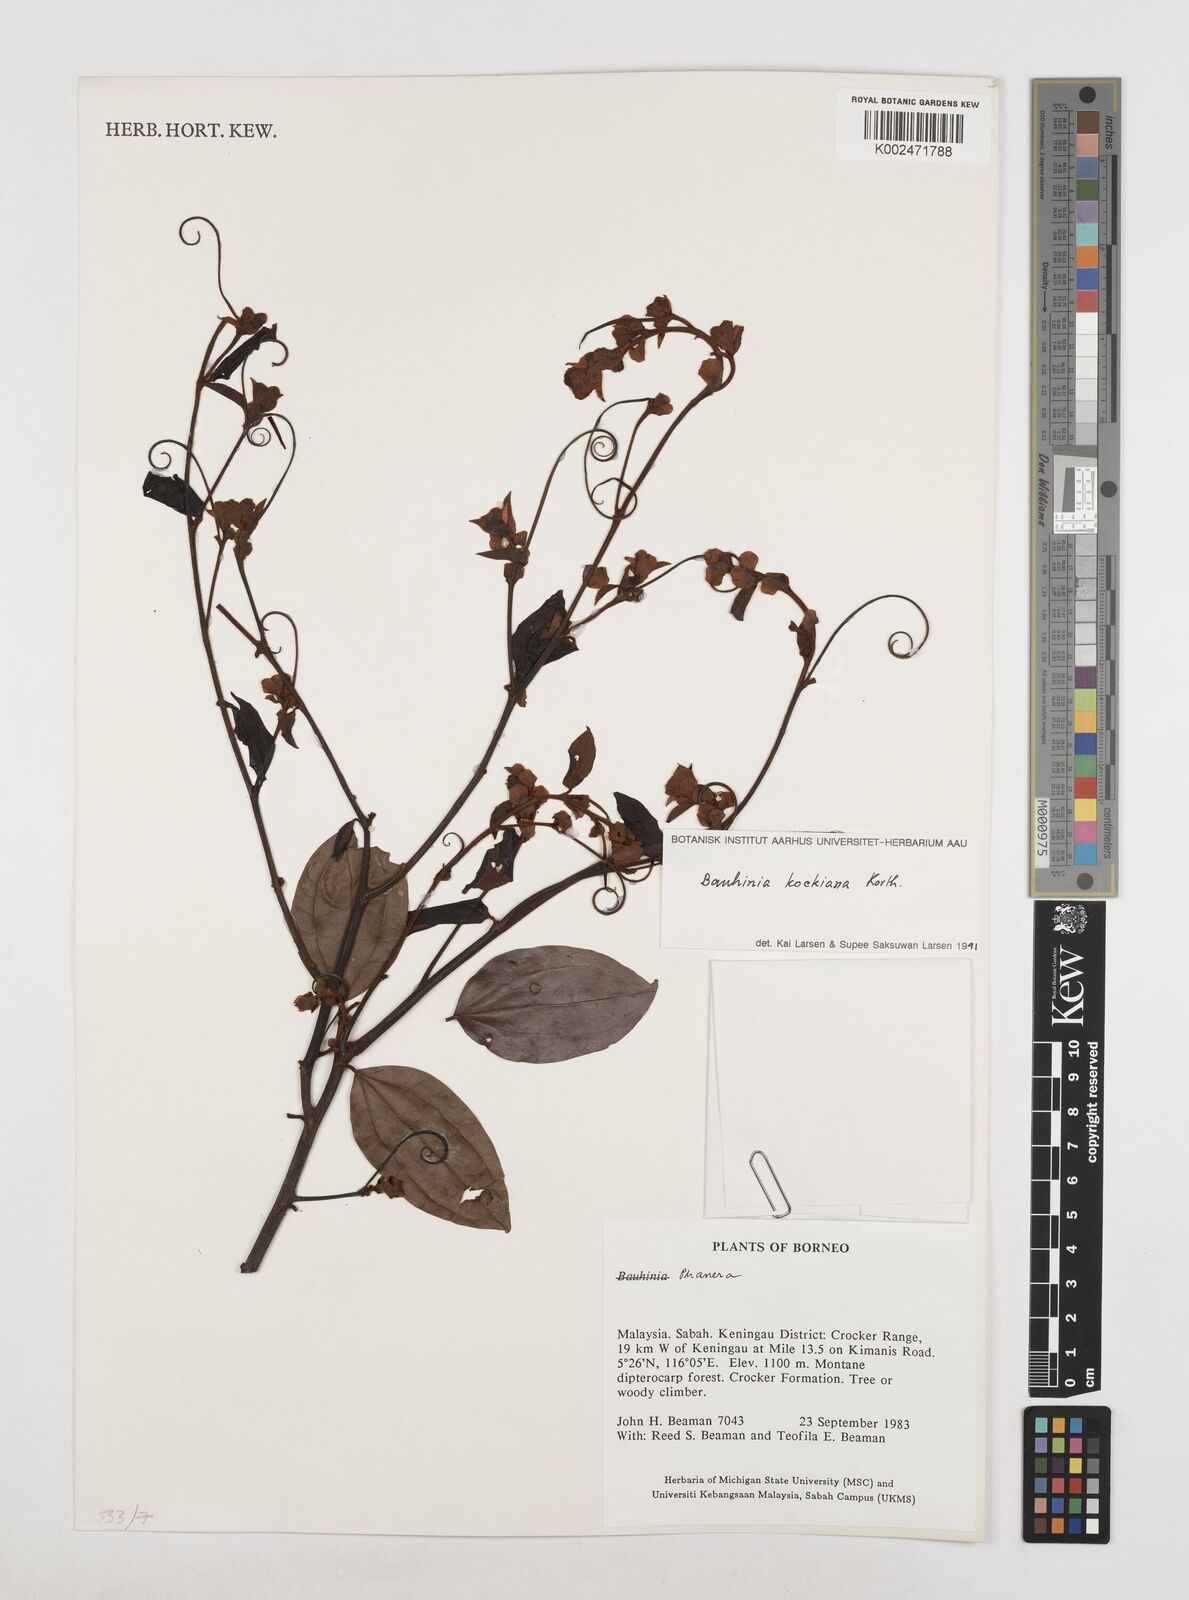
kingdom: Plantae
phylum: Tracheophyta
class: Magnoliopsida
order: Fabales
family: Fabaceae
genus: Phanera
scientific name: Phanera kockiana
